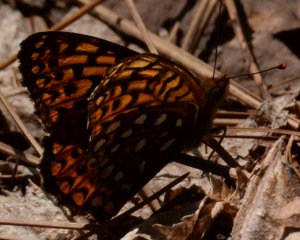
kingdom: Animalia
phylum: Arthropoda
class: Insecta
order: Lepidoptera
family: Nymphalidae
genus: Speyeria
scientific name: Speyeria atlantis
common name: Atlantis Fritillary
